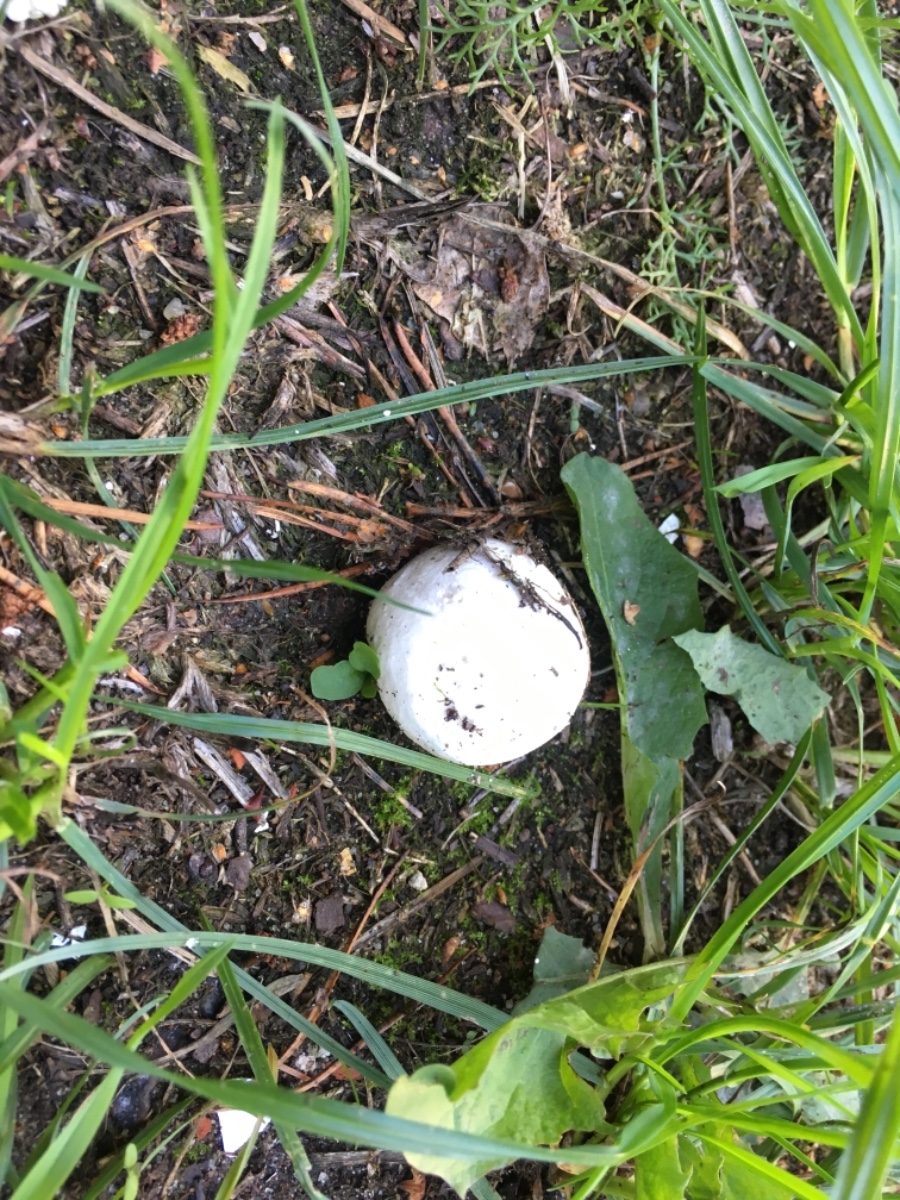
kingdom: Fungi
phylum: Basidiomycota
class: Agaricomycetes
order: Agaricales
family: Lycoperdaceae
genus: Bovista
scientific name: Bovista
